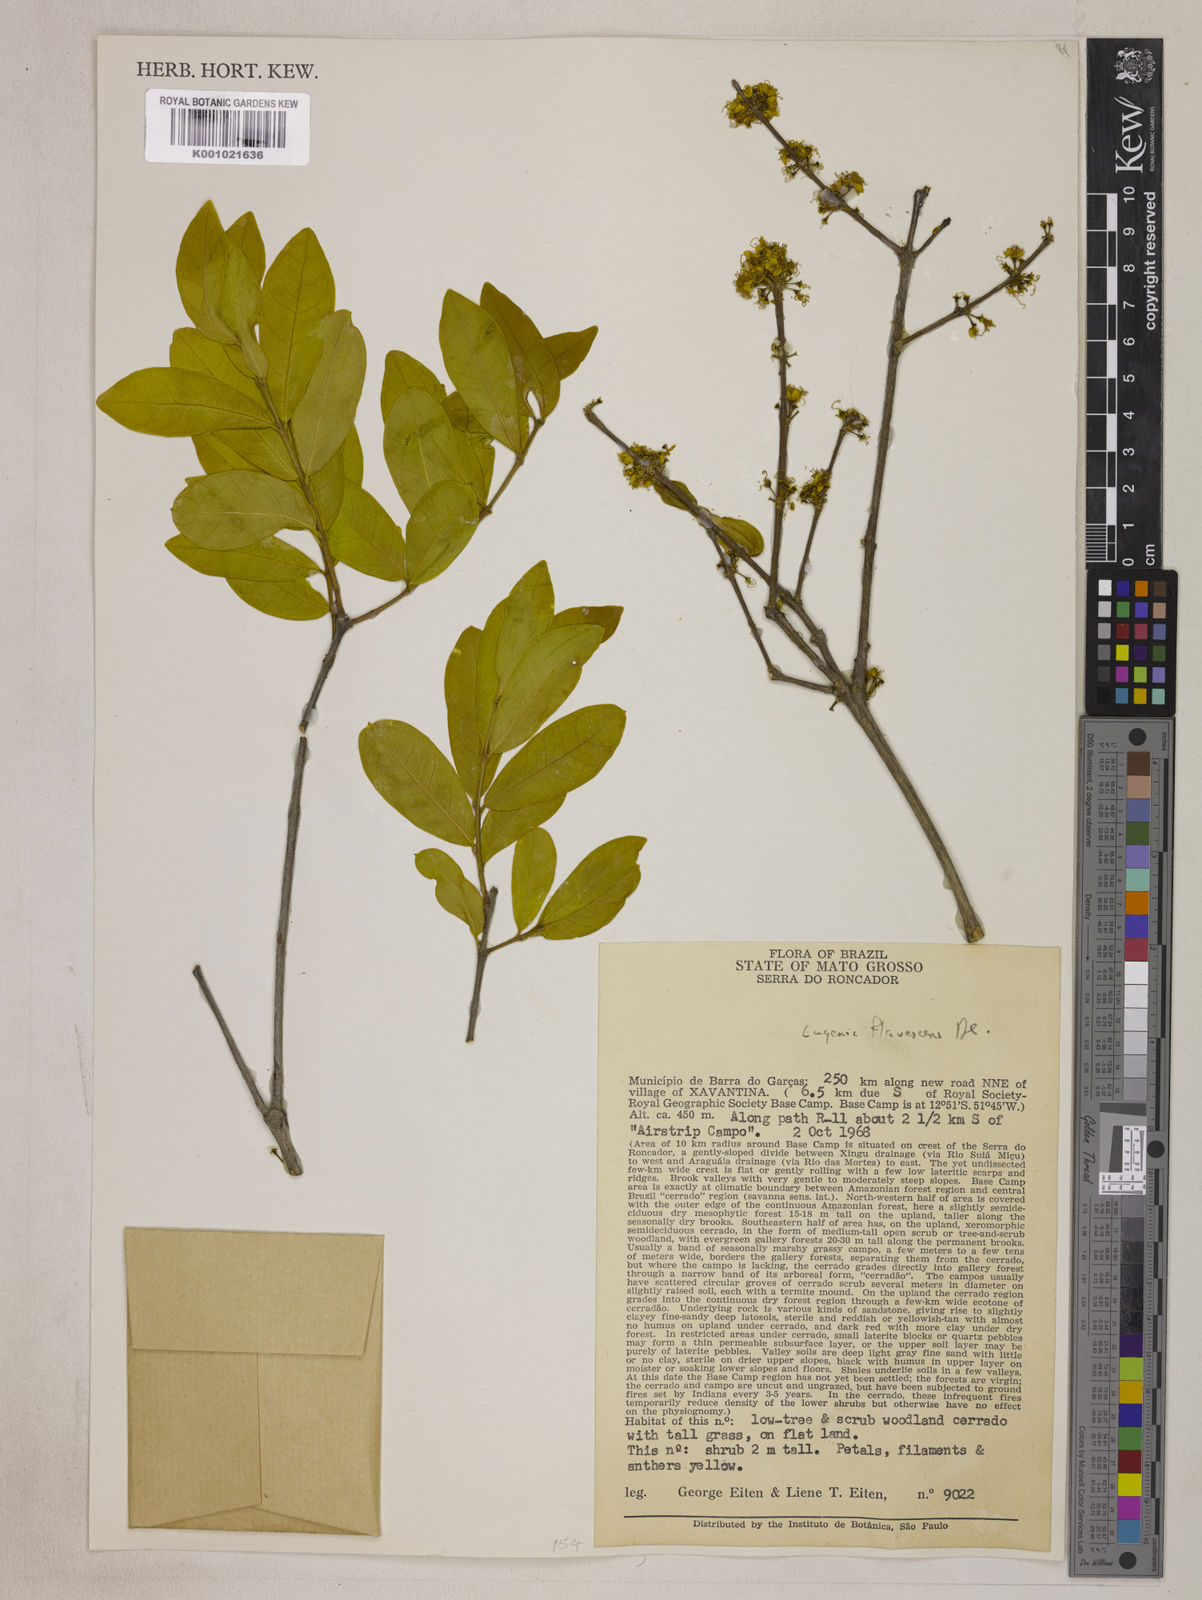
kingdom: Plantae
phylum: Tracheophyta
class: Magnoliopsida
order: Myrtales
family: Myrtaceae
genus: Eugenia
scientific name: Eugenia flavescens
